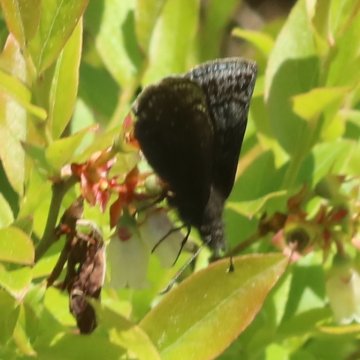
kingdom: Animalia
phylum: Arthropoda
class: Insecta
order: Lepidoptera
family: Hesperiidae
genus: Erynnis
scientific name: Erynnis icelus
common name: Dreamy Duskywing
